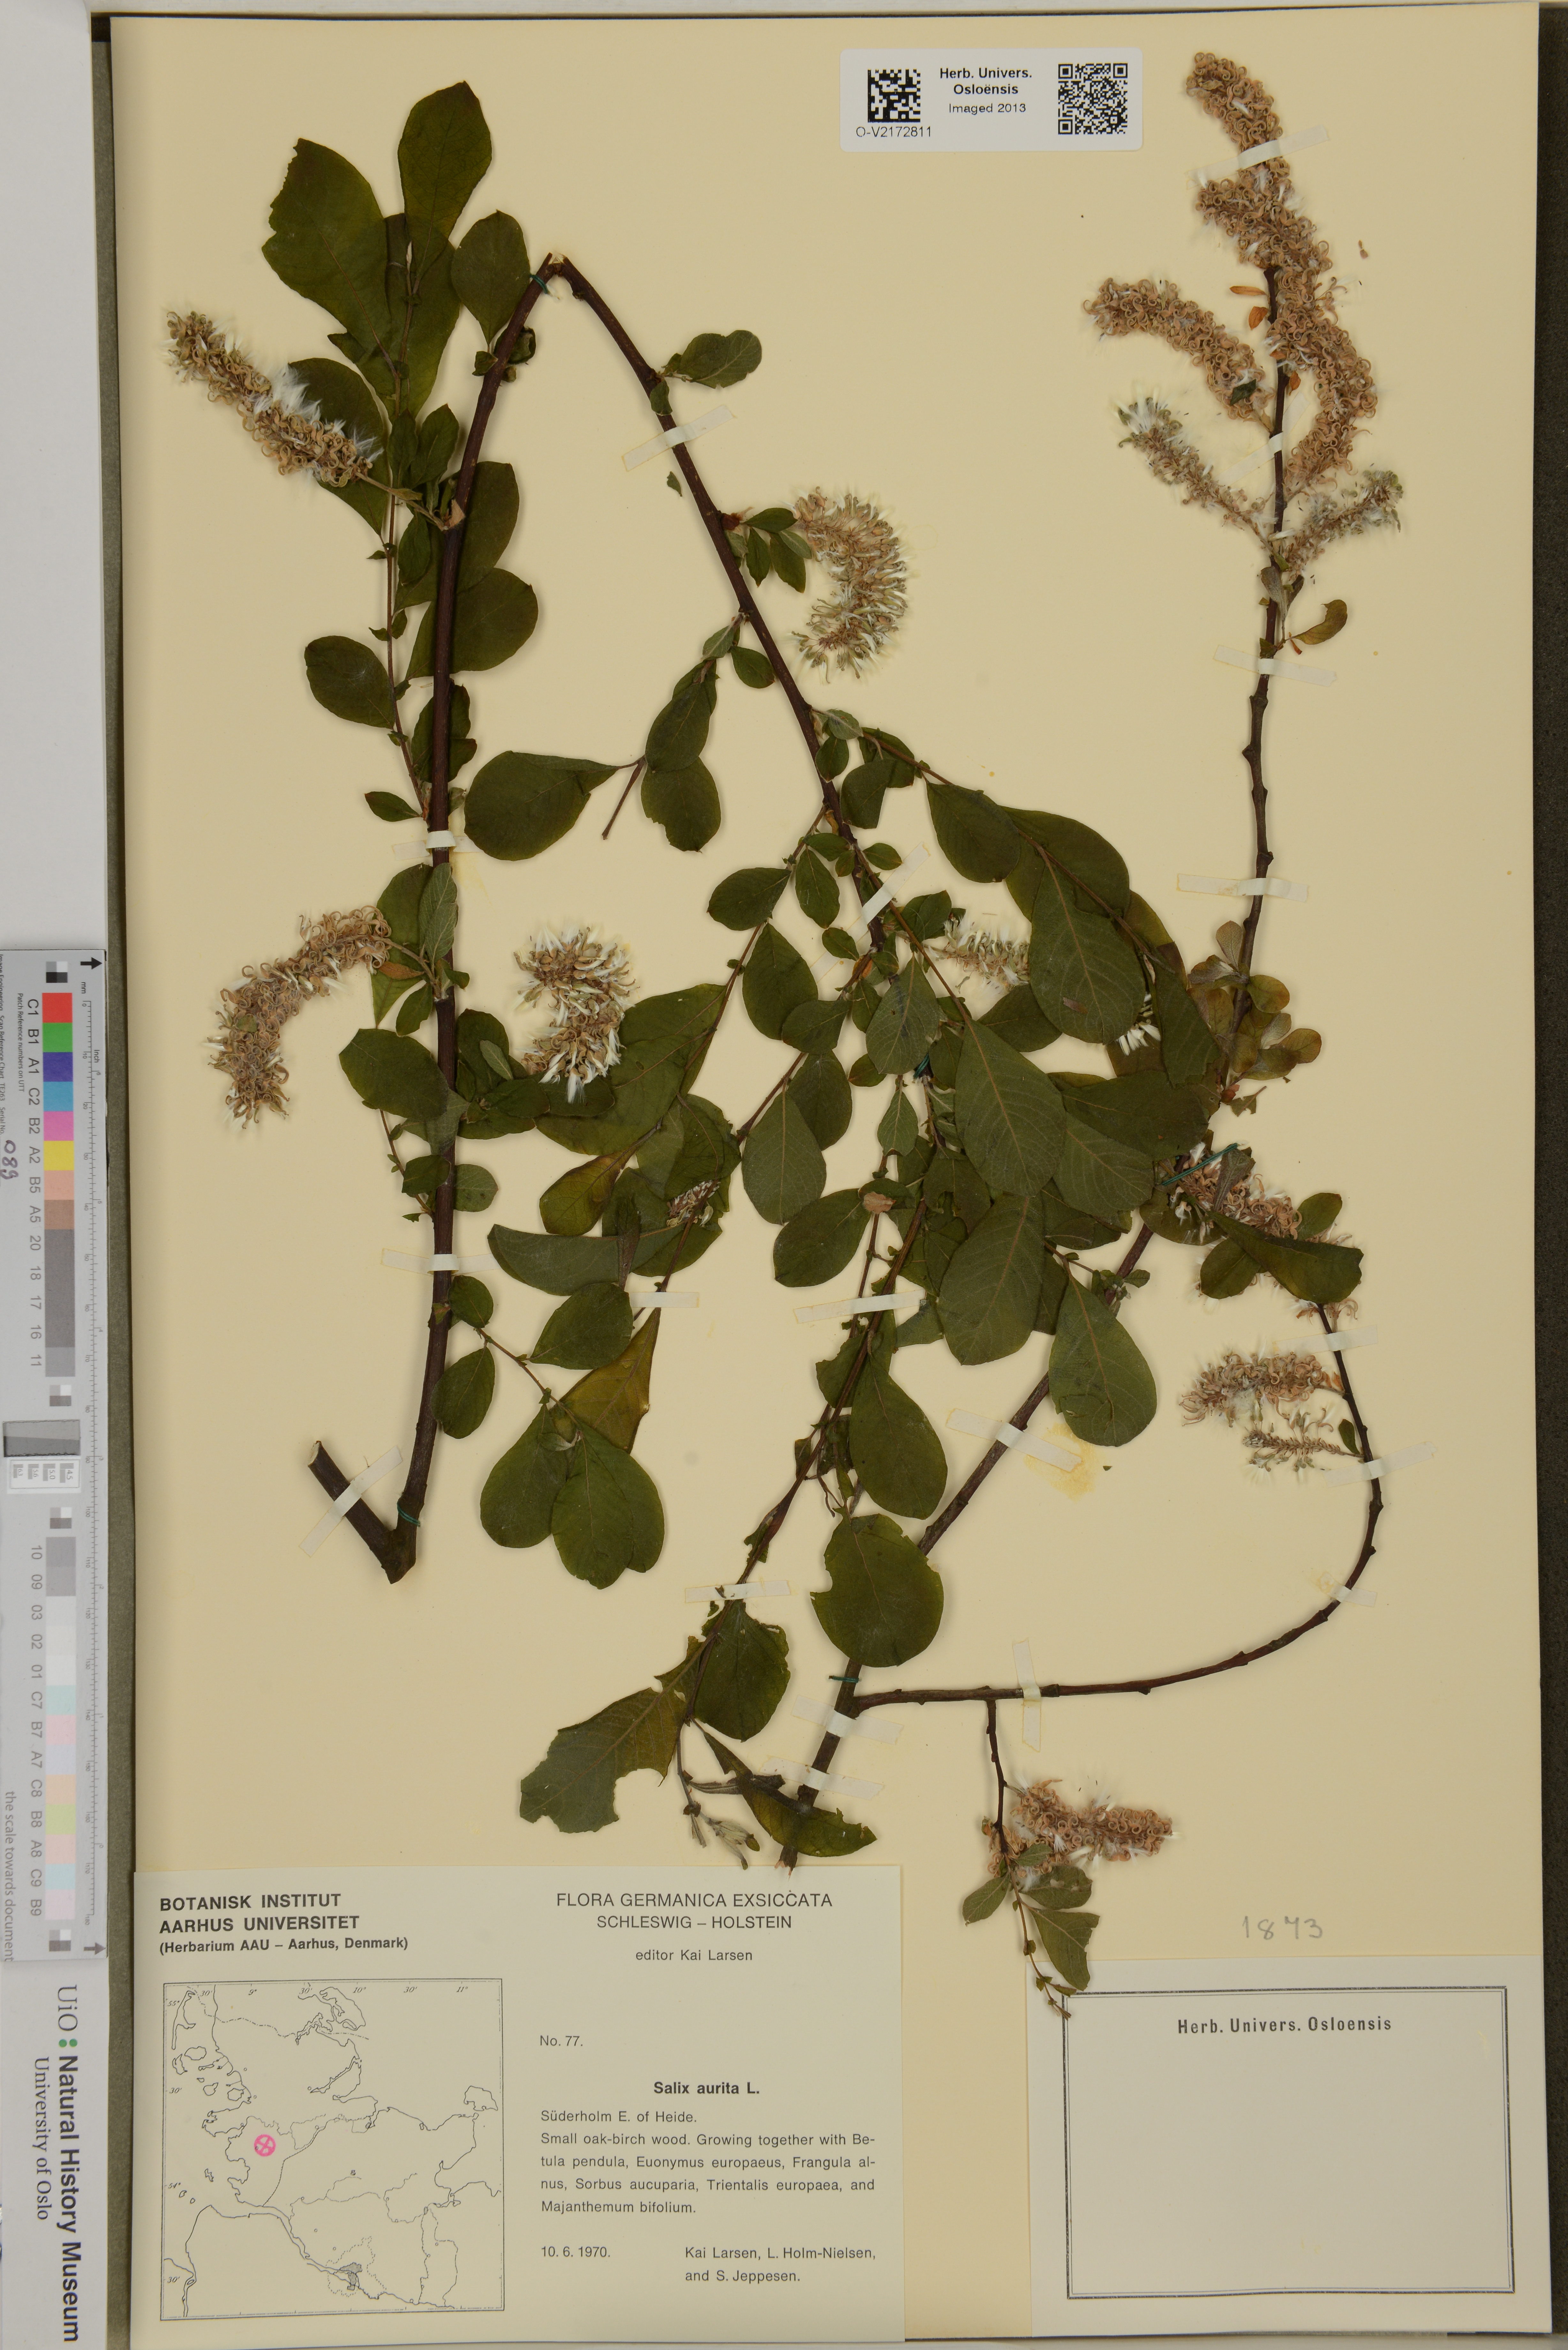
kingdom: Plantae
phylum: Tracheophyta
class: Magnoliopsida
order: Malpighiales
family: Salicaceae
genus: Salix
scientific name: Salix aurita
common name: Eared willow
